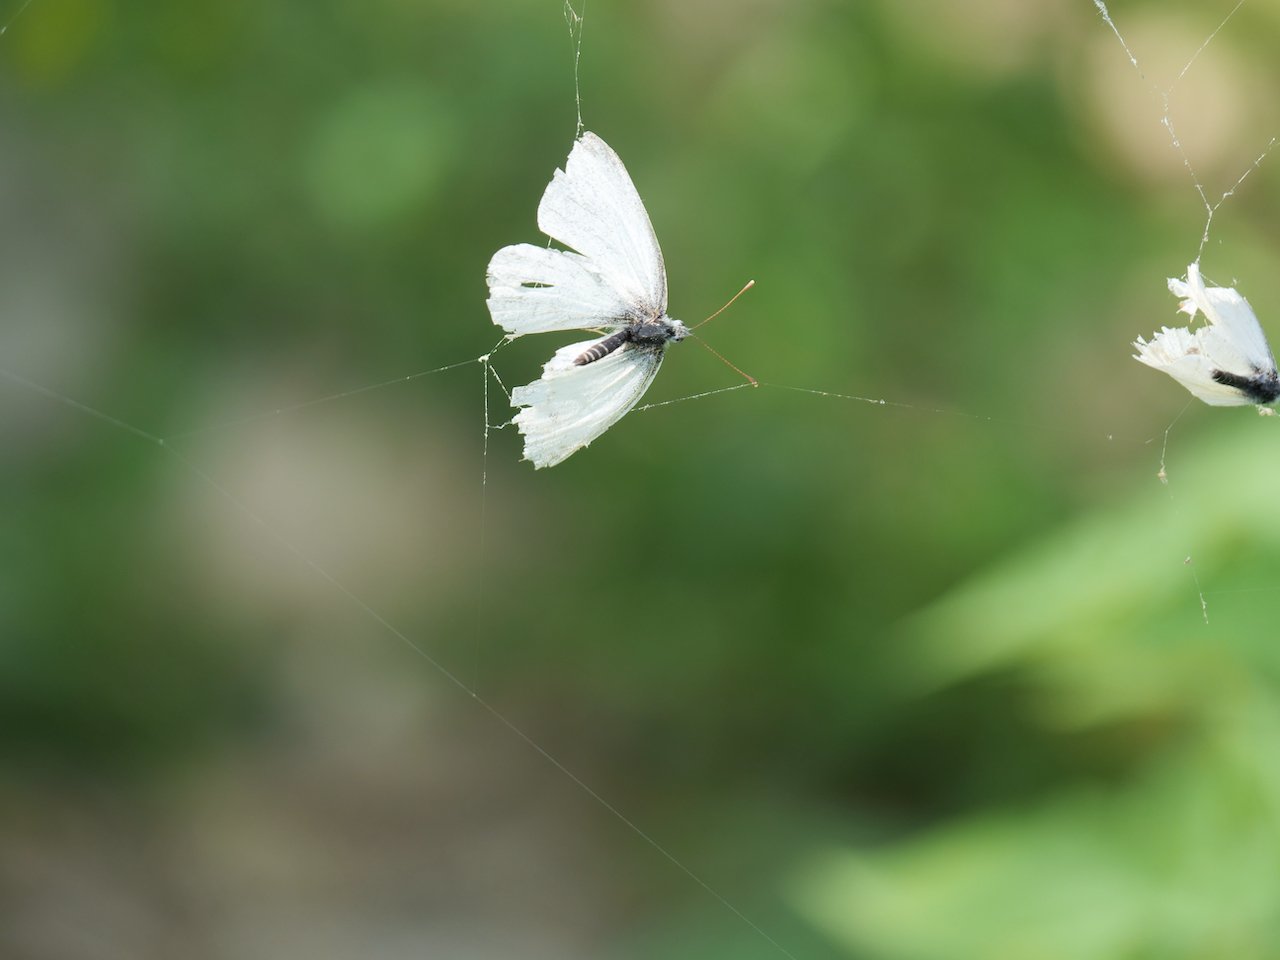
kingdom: Animalia
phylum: Arthropoda
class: Insecta
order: Lepidoptera
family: Pieridae
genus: Pieris
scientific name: Pieris
